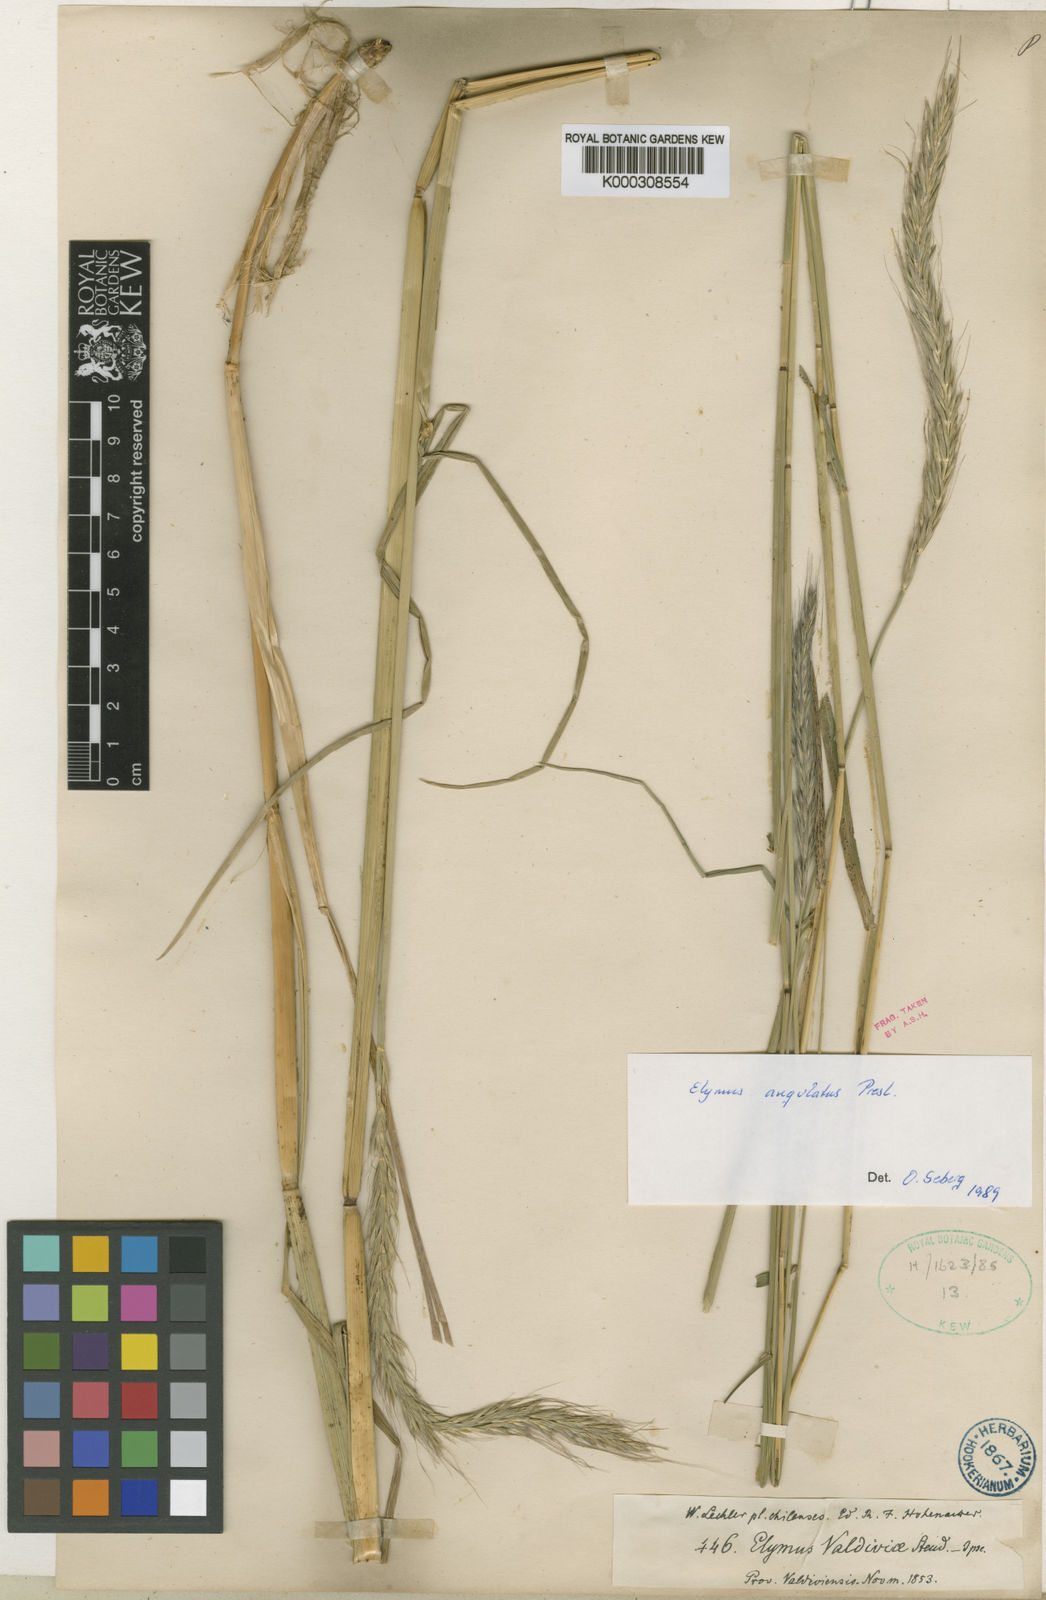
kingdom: Plantae
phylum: Tracheophyta
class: Liliopsida
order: Poales
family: Poaceae
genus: Elymus
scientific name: Elymus angulatus
